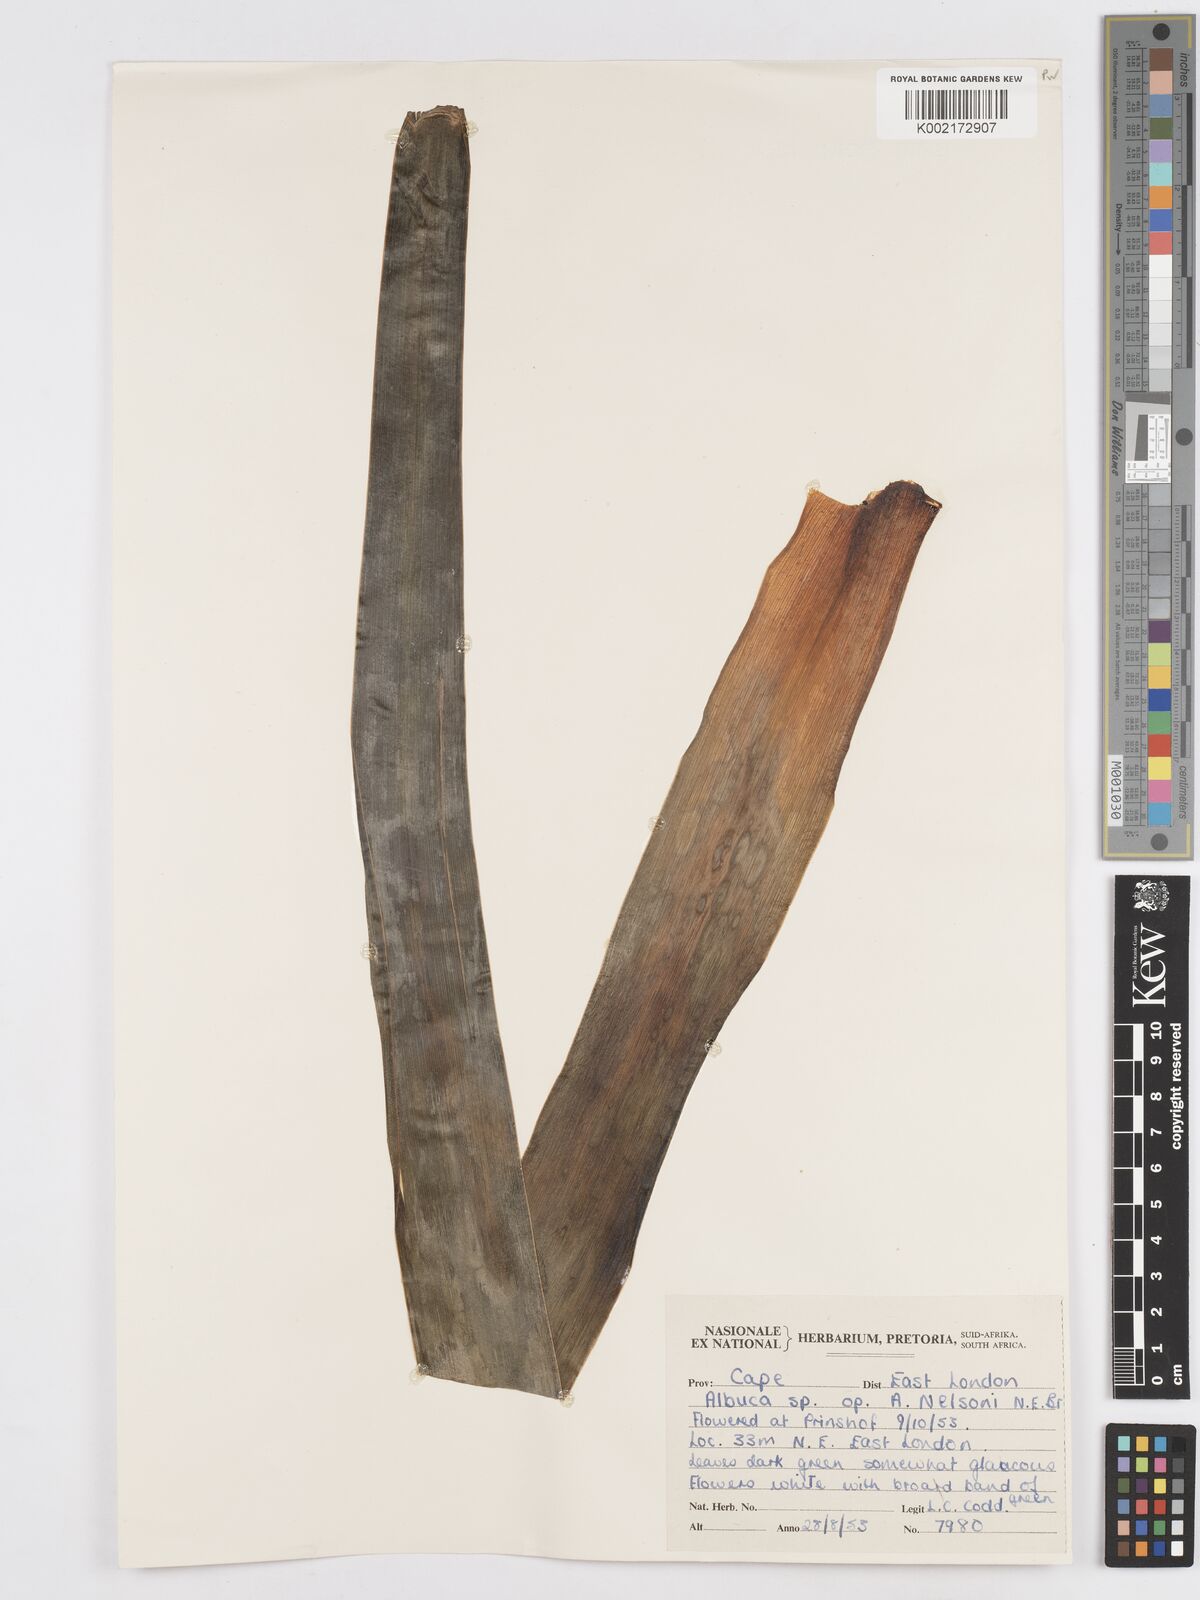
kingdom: Plantae
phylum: Tracheophyta
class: Liliopsida
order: Asparagales
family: Asparagaceae
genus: Albuca
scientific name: Albuca nelsonii
